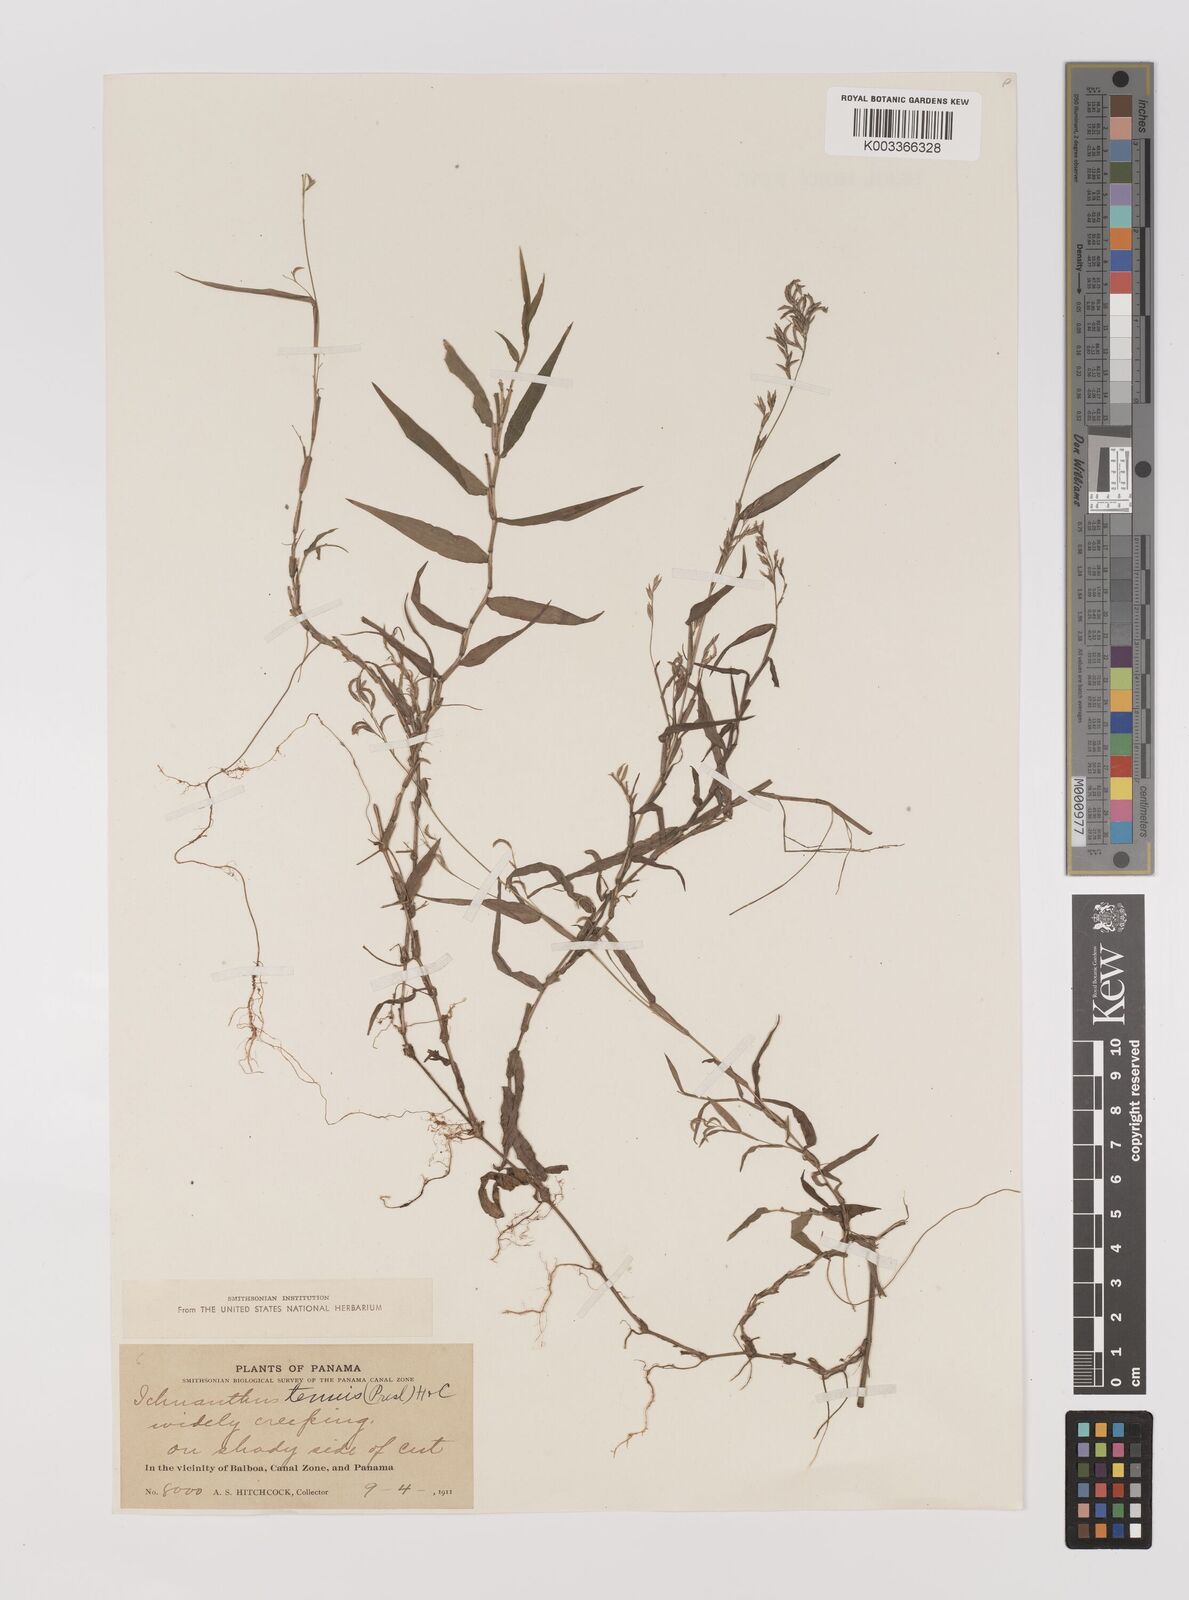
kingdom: Plantae
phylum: Tracheophyta
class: Liliopsida
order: Poales
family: Poaceae
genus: Ichnanthus
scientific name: Ichnanthus tenuis
